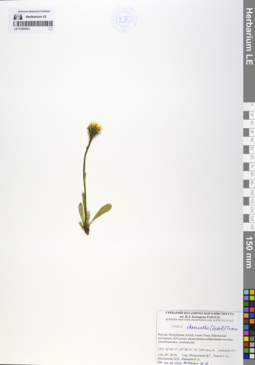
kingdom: Plantae
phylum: Tracheophyta
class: Magnoliopsida
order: Asterales
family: Asteraceae
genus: Crepis
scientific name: Crepis chrysantha
